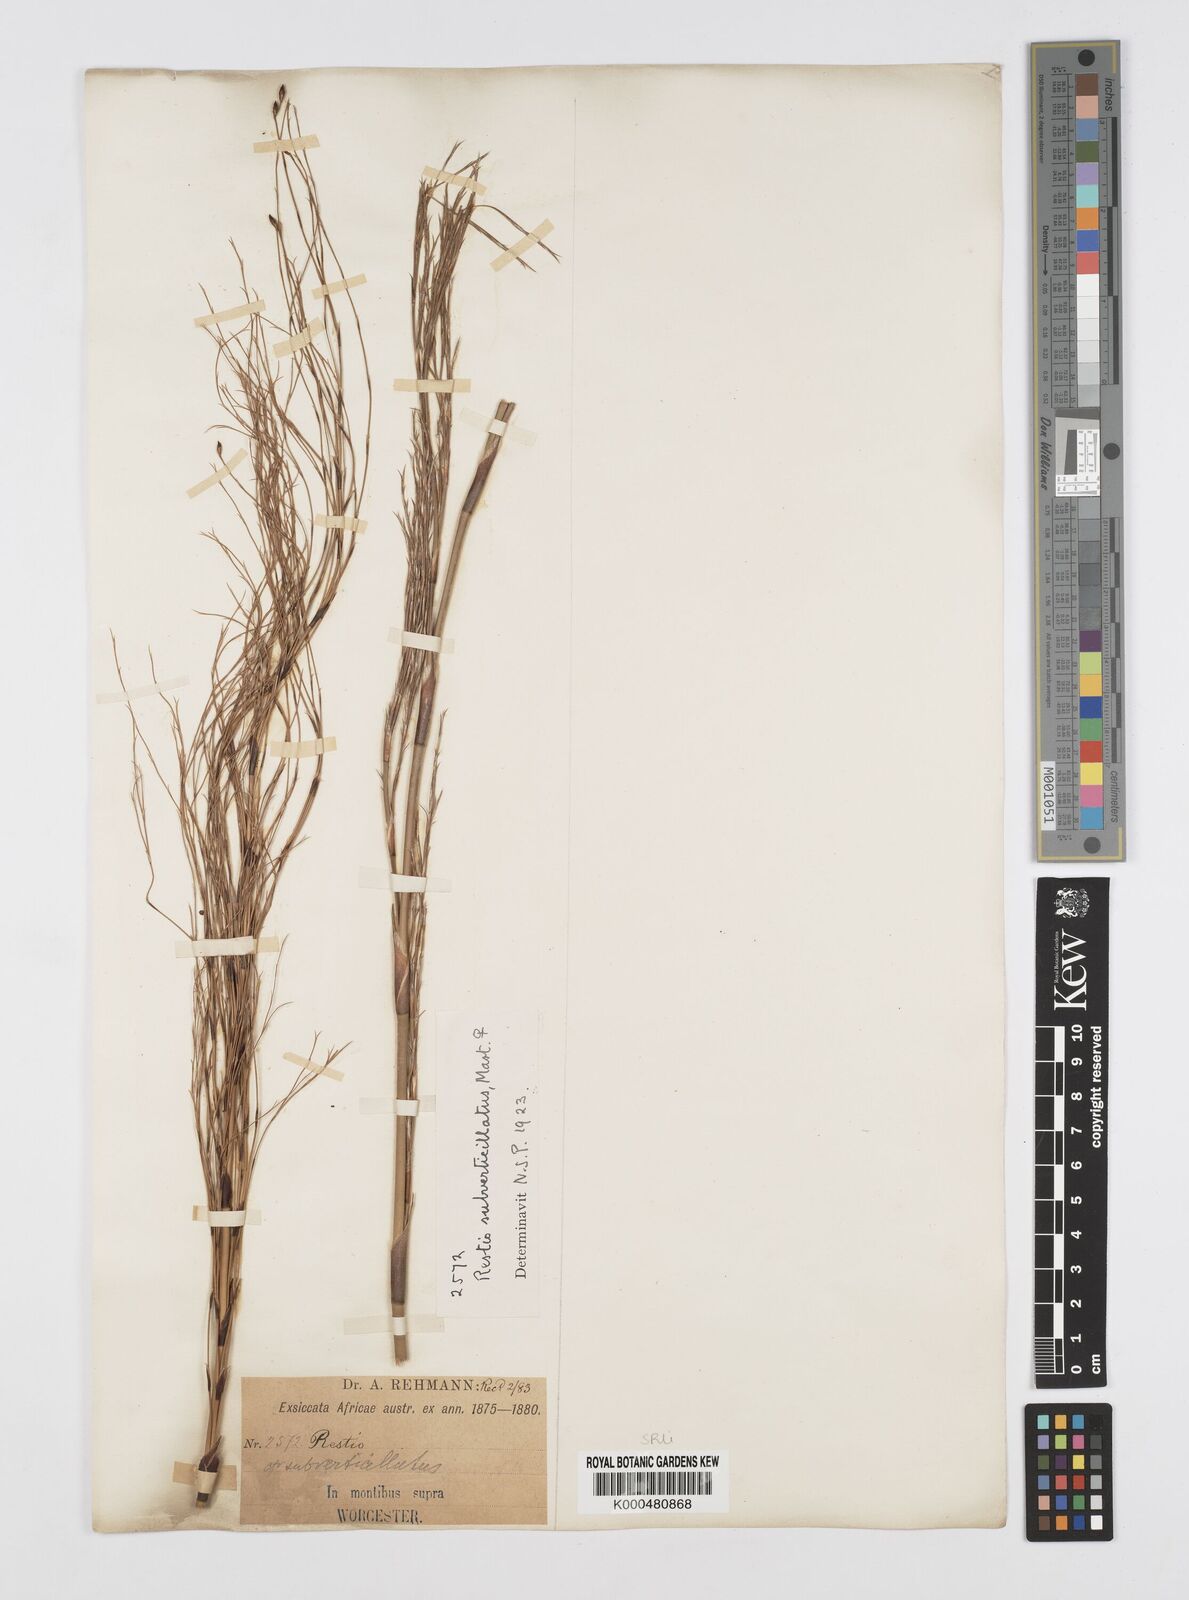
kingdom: Plantae
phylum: Tracheophyta
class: Liliopsida
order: Poales
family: Restionaceae
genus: Restio
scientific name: Restio subverticillatus
